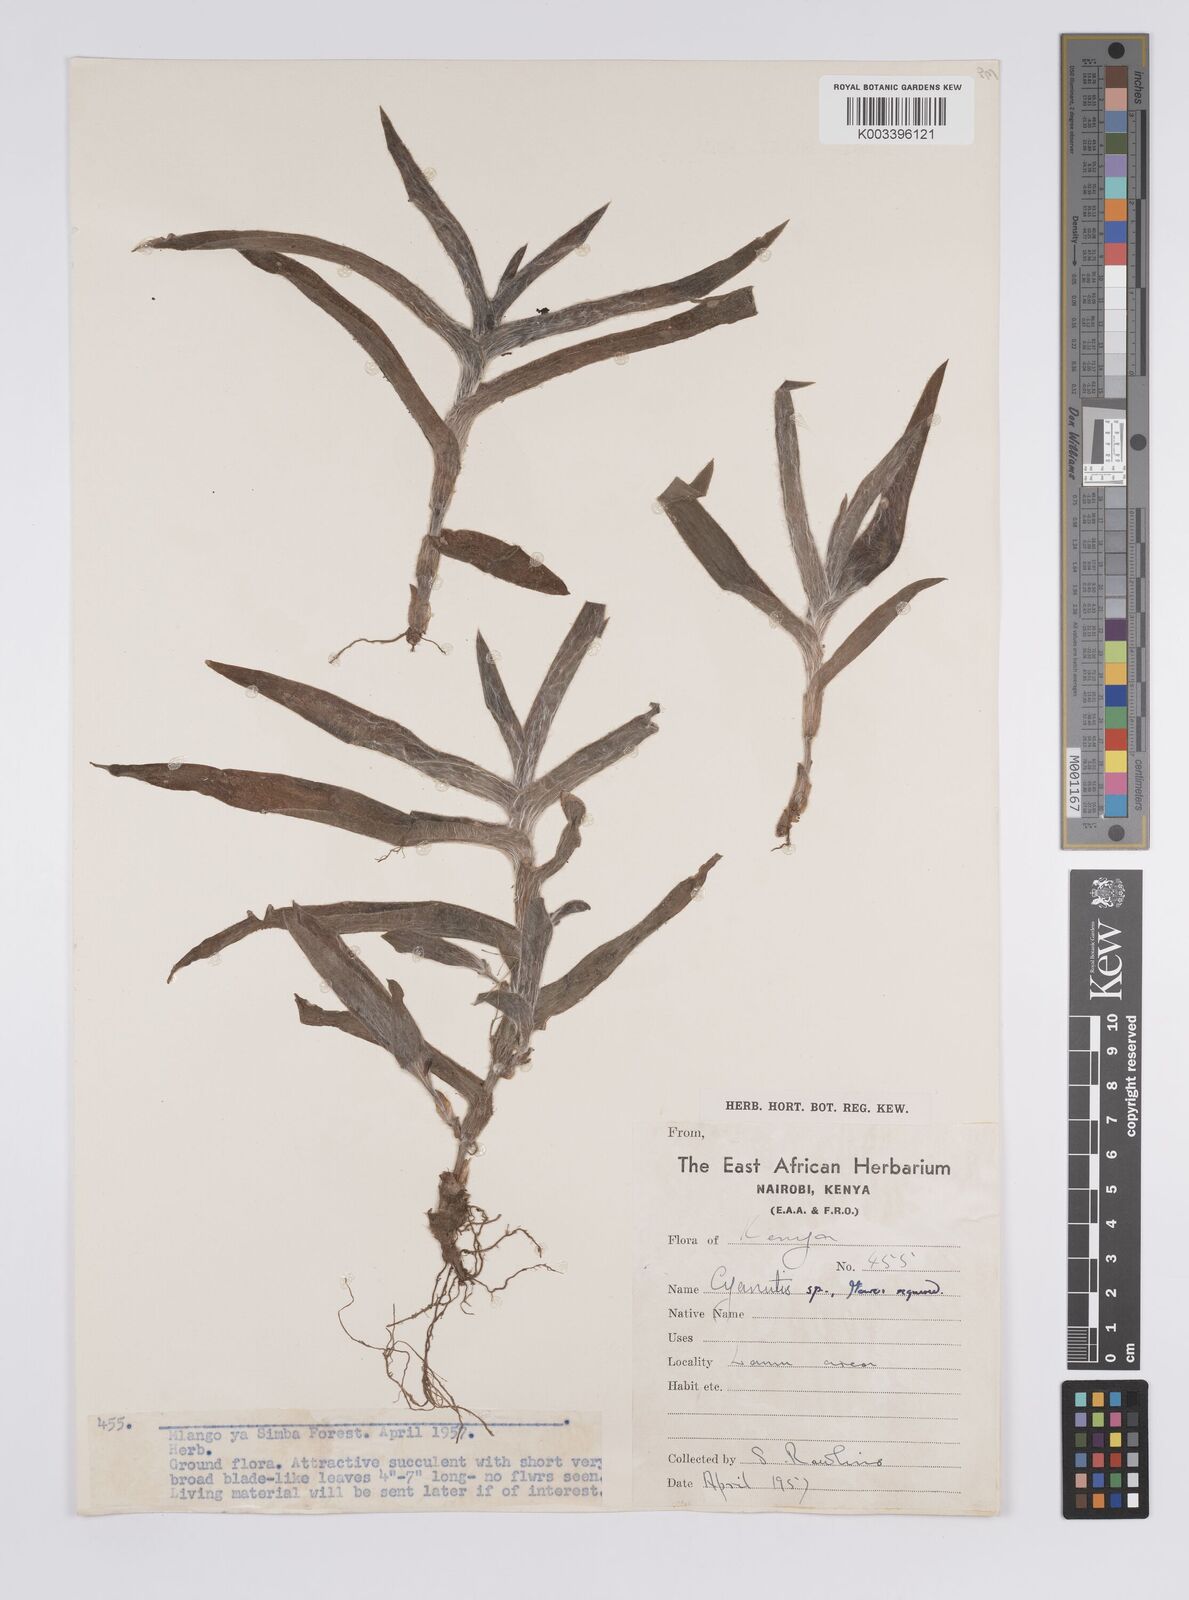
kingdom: Plantae
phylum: Tracheophyta
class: Liliopsida
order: Commelinales
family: Commelinaceae
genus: Cyanotis
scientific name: Cyanotis
